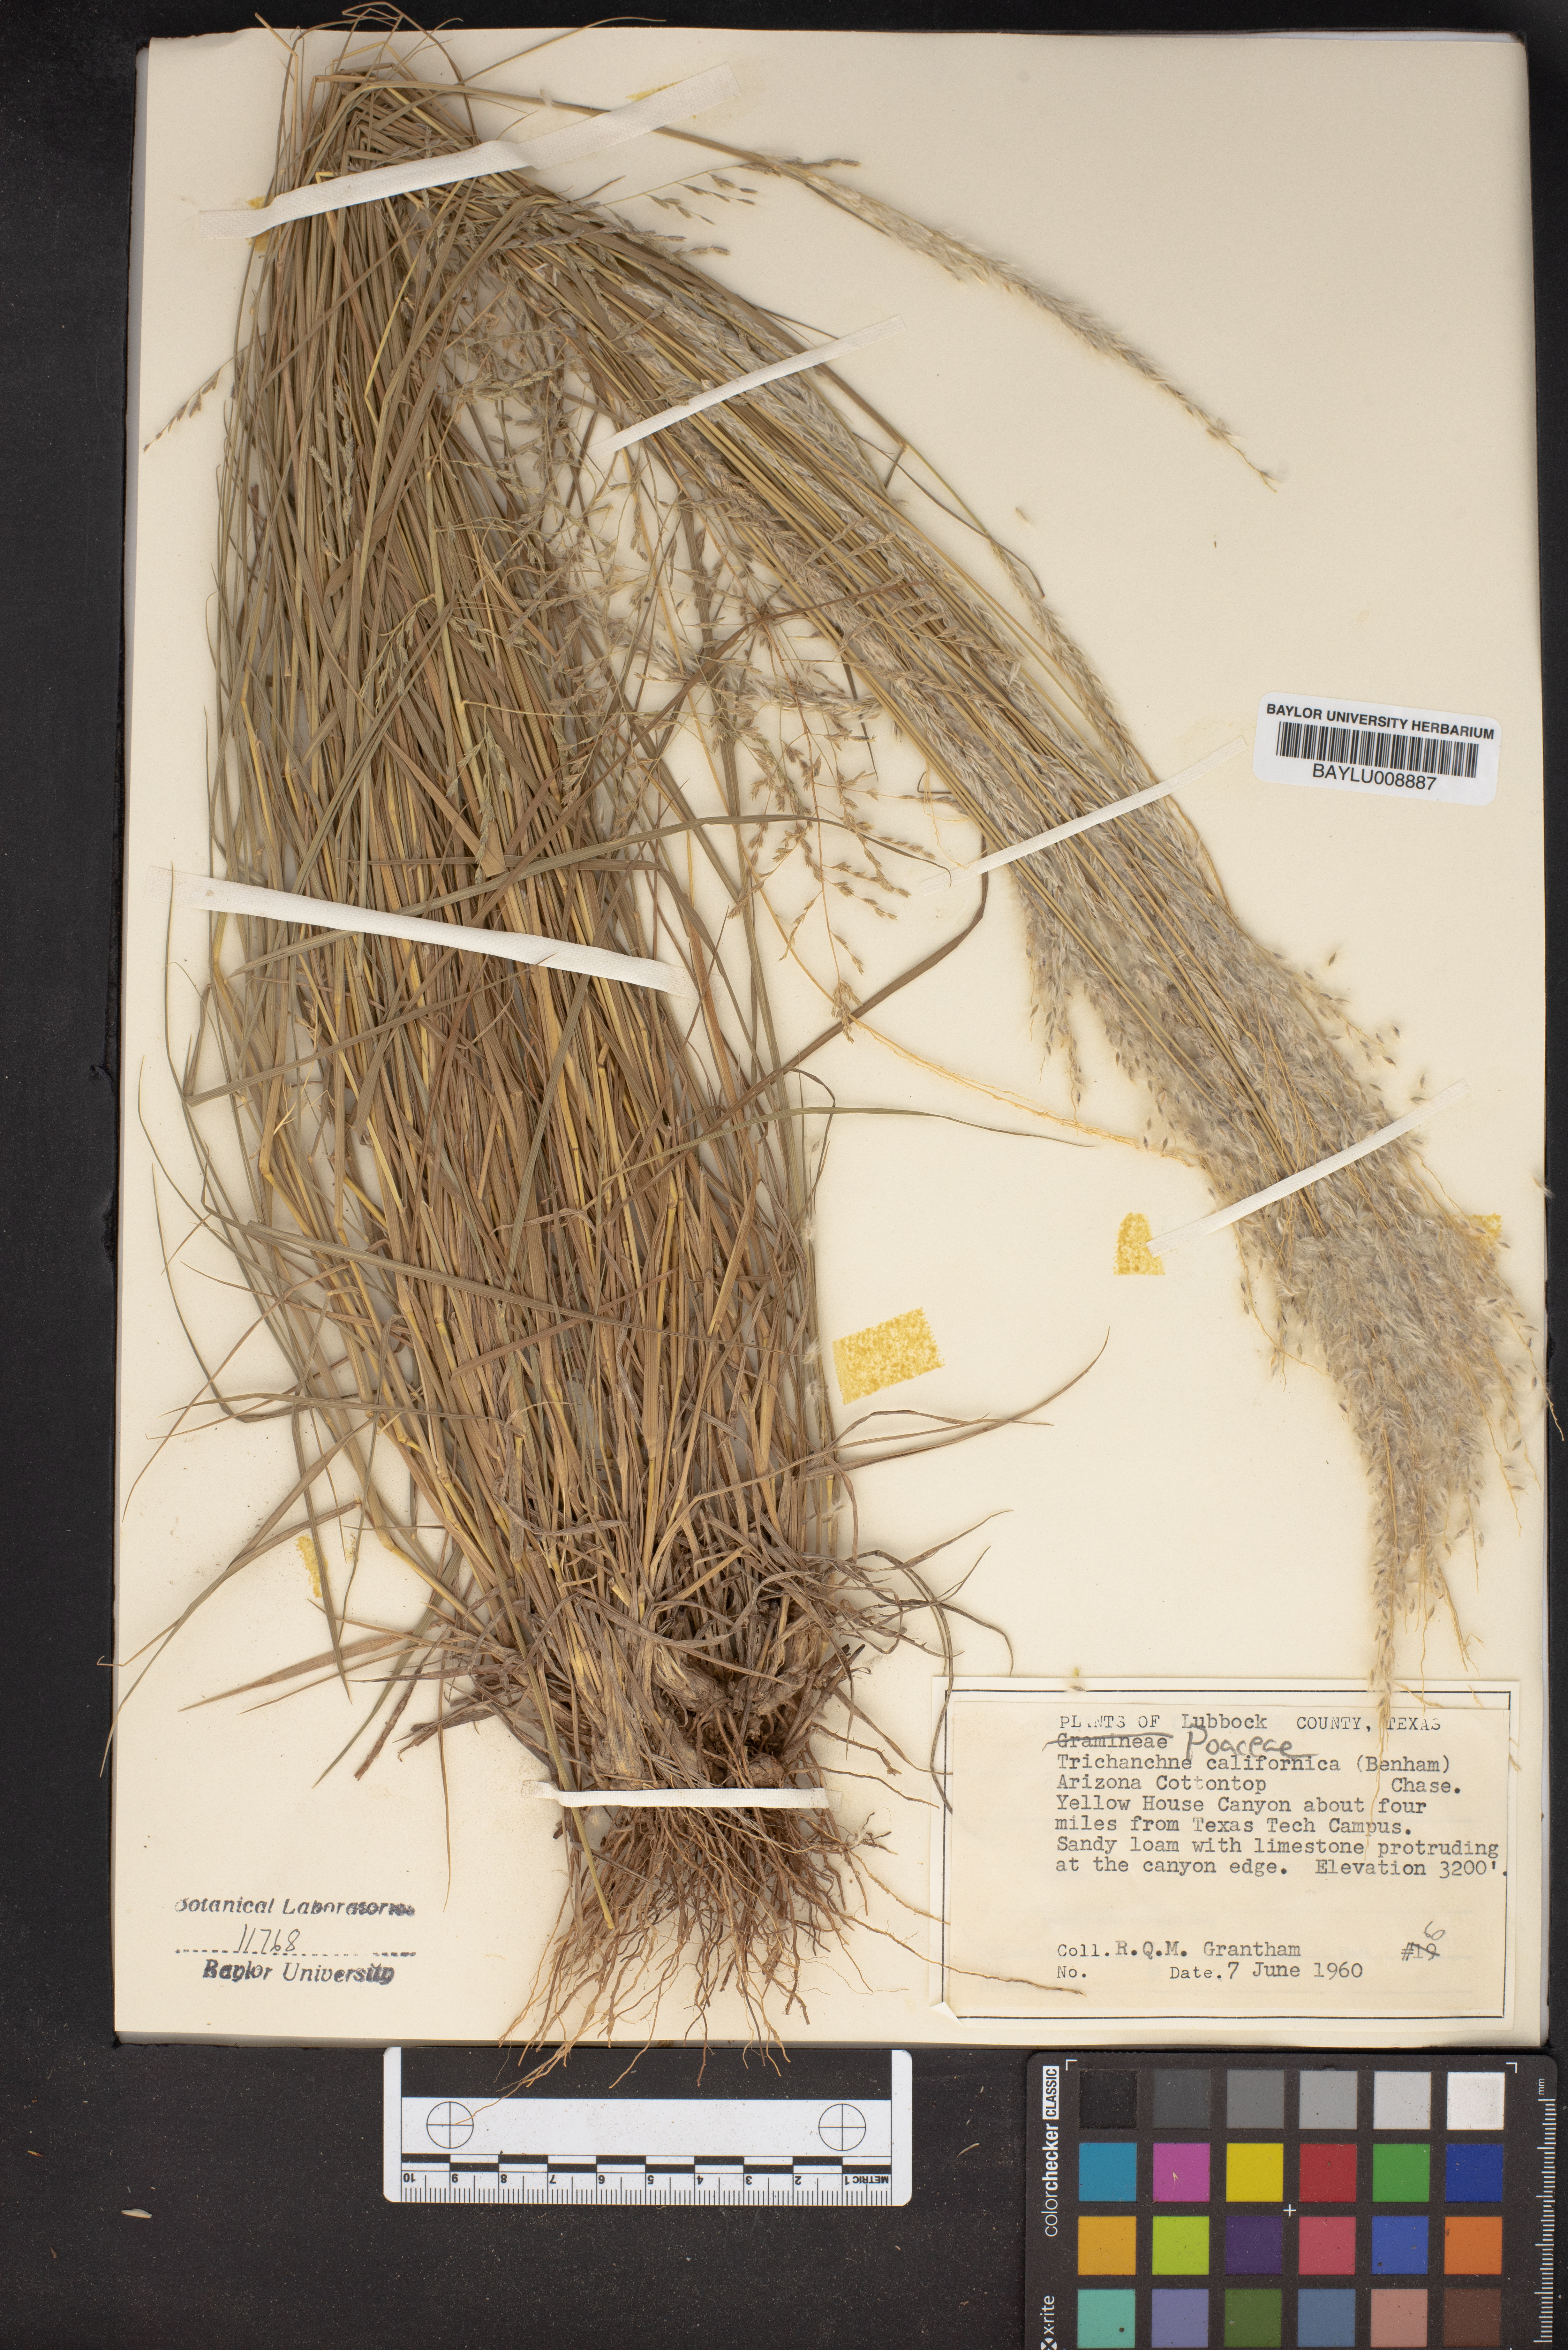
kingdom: Plantae
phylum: Tracheophyta
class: Liliopsida
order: Poales
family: Poaceae
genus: Digitaria
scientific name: Digitaria californica
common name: Arizona cottontop
